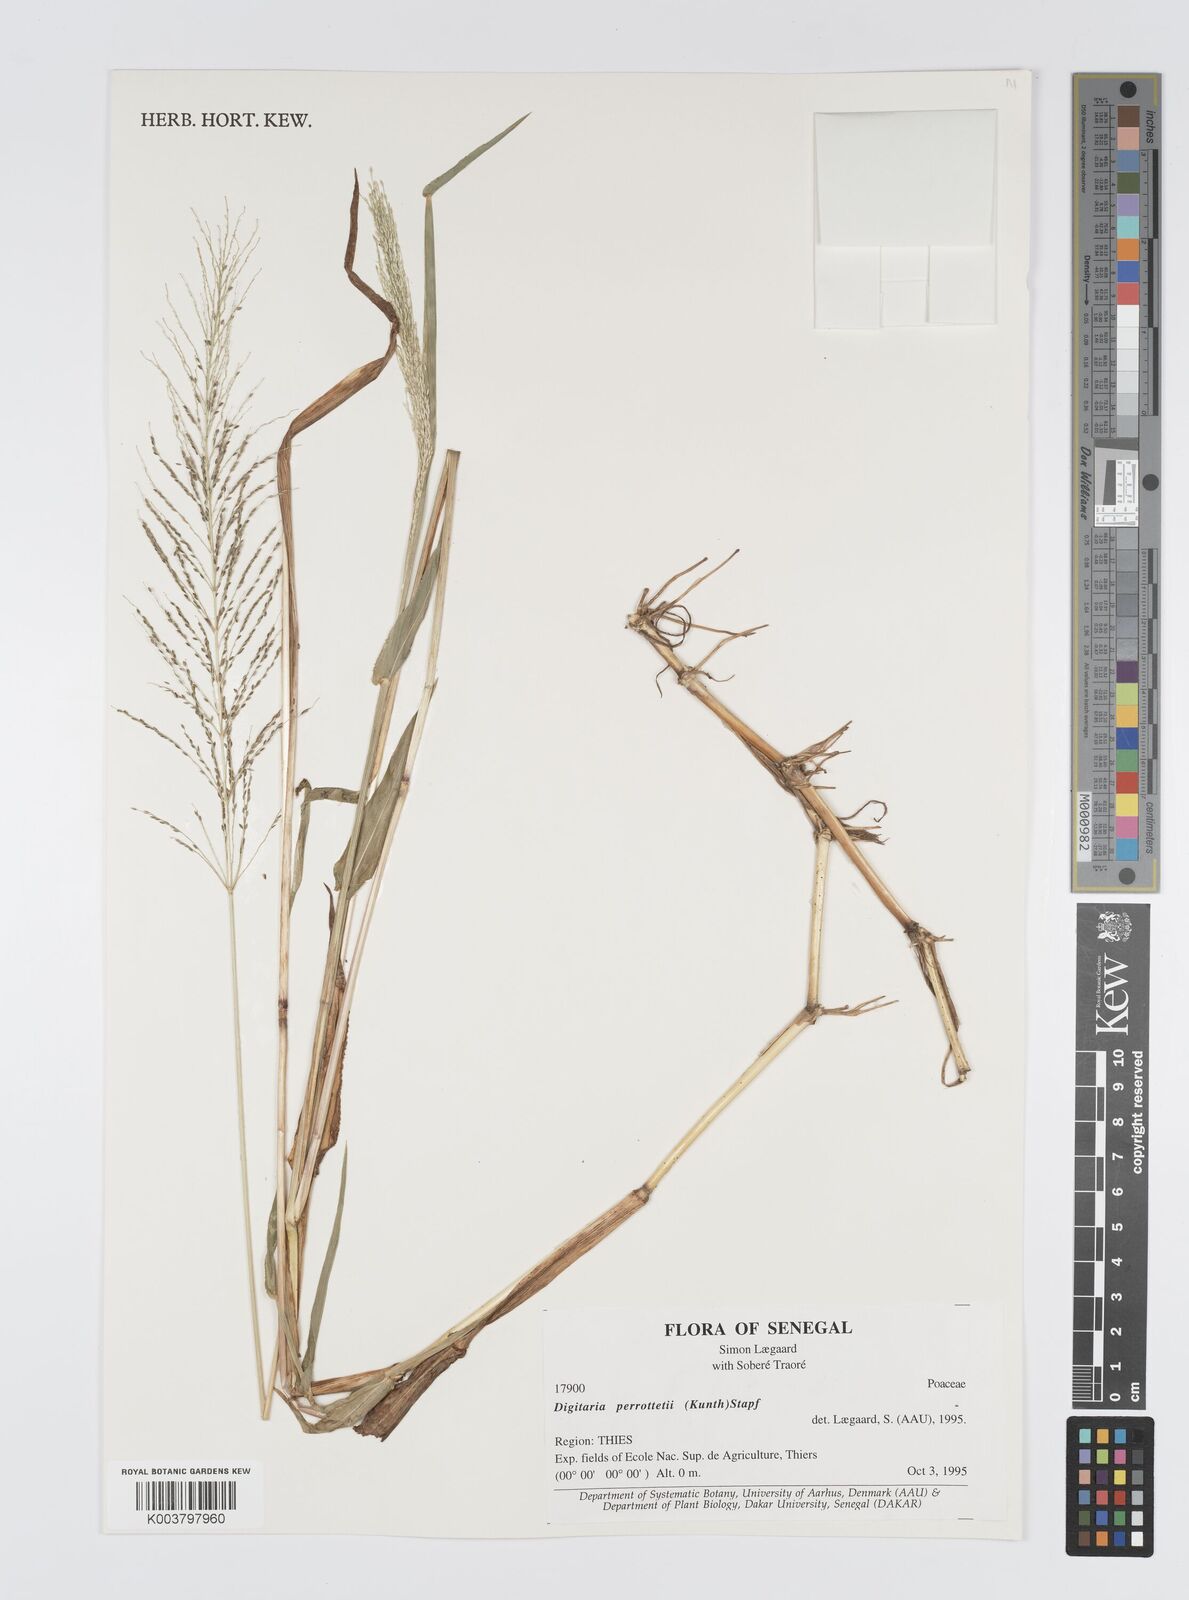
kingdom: Plantae
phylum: Tracheophyta
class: Liliopsida
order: Poales
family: Poaceae
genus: Digitaria
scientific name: Digitaria perrottetii
